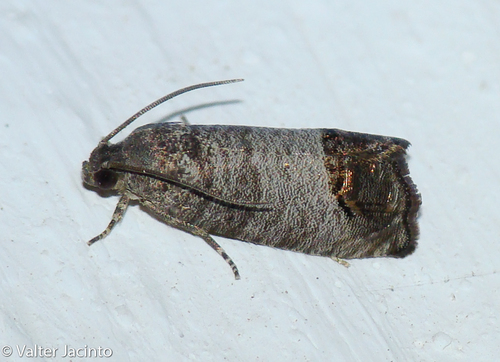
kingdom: Animalia
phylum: Arthropoda
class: Insecta
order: Lepidoptera
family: Tortricidae
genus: Cydia
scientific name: Cydia pomonella
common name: Codling moth
